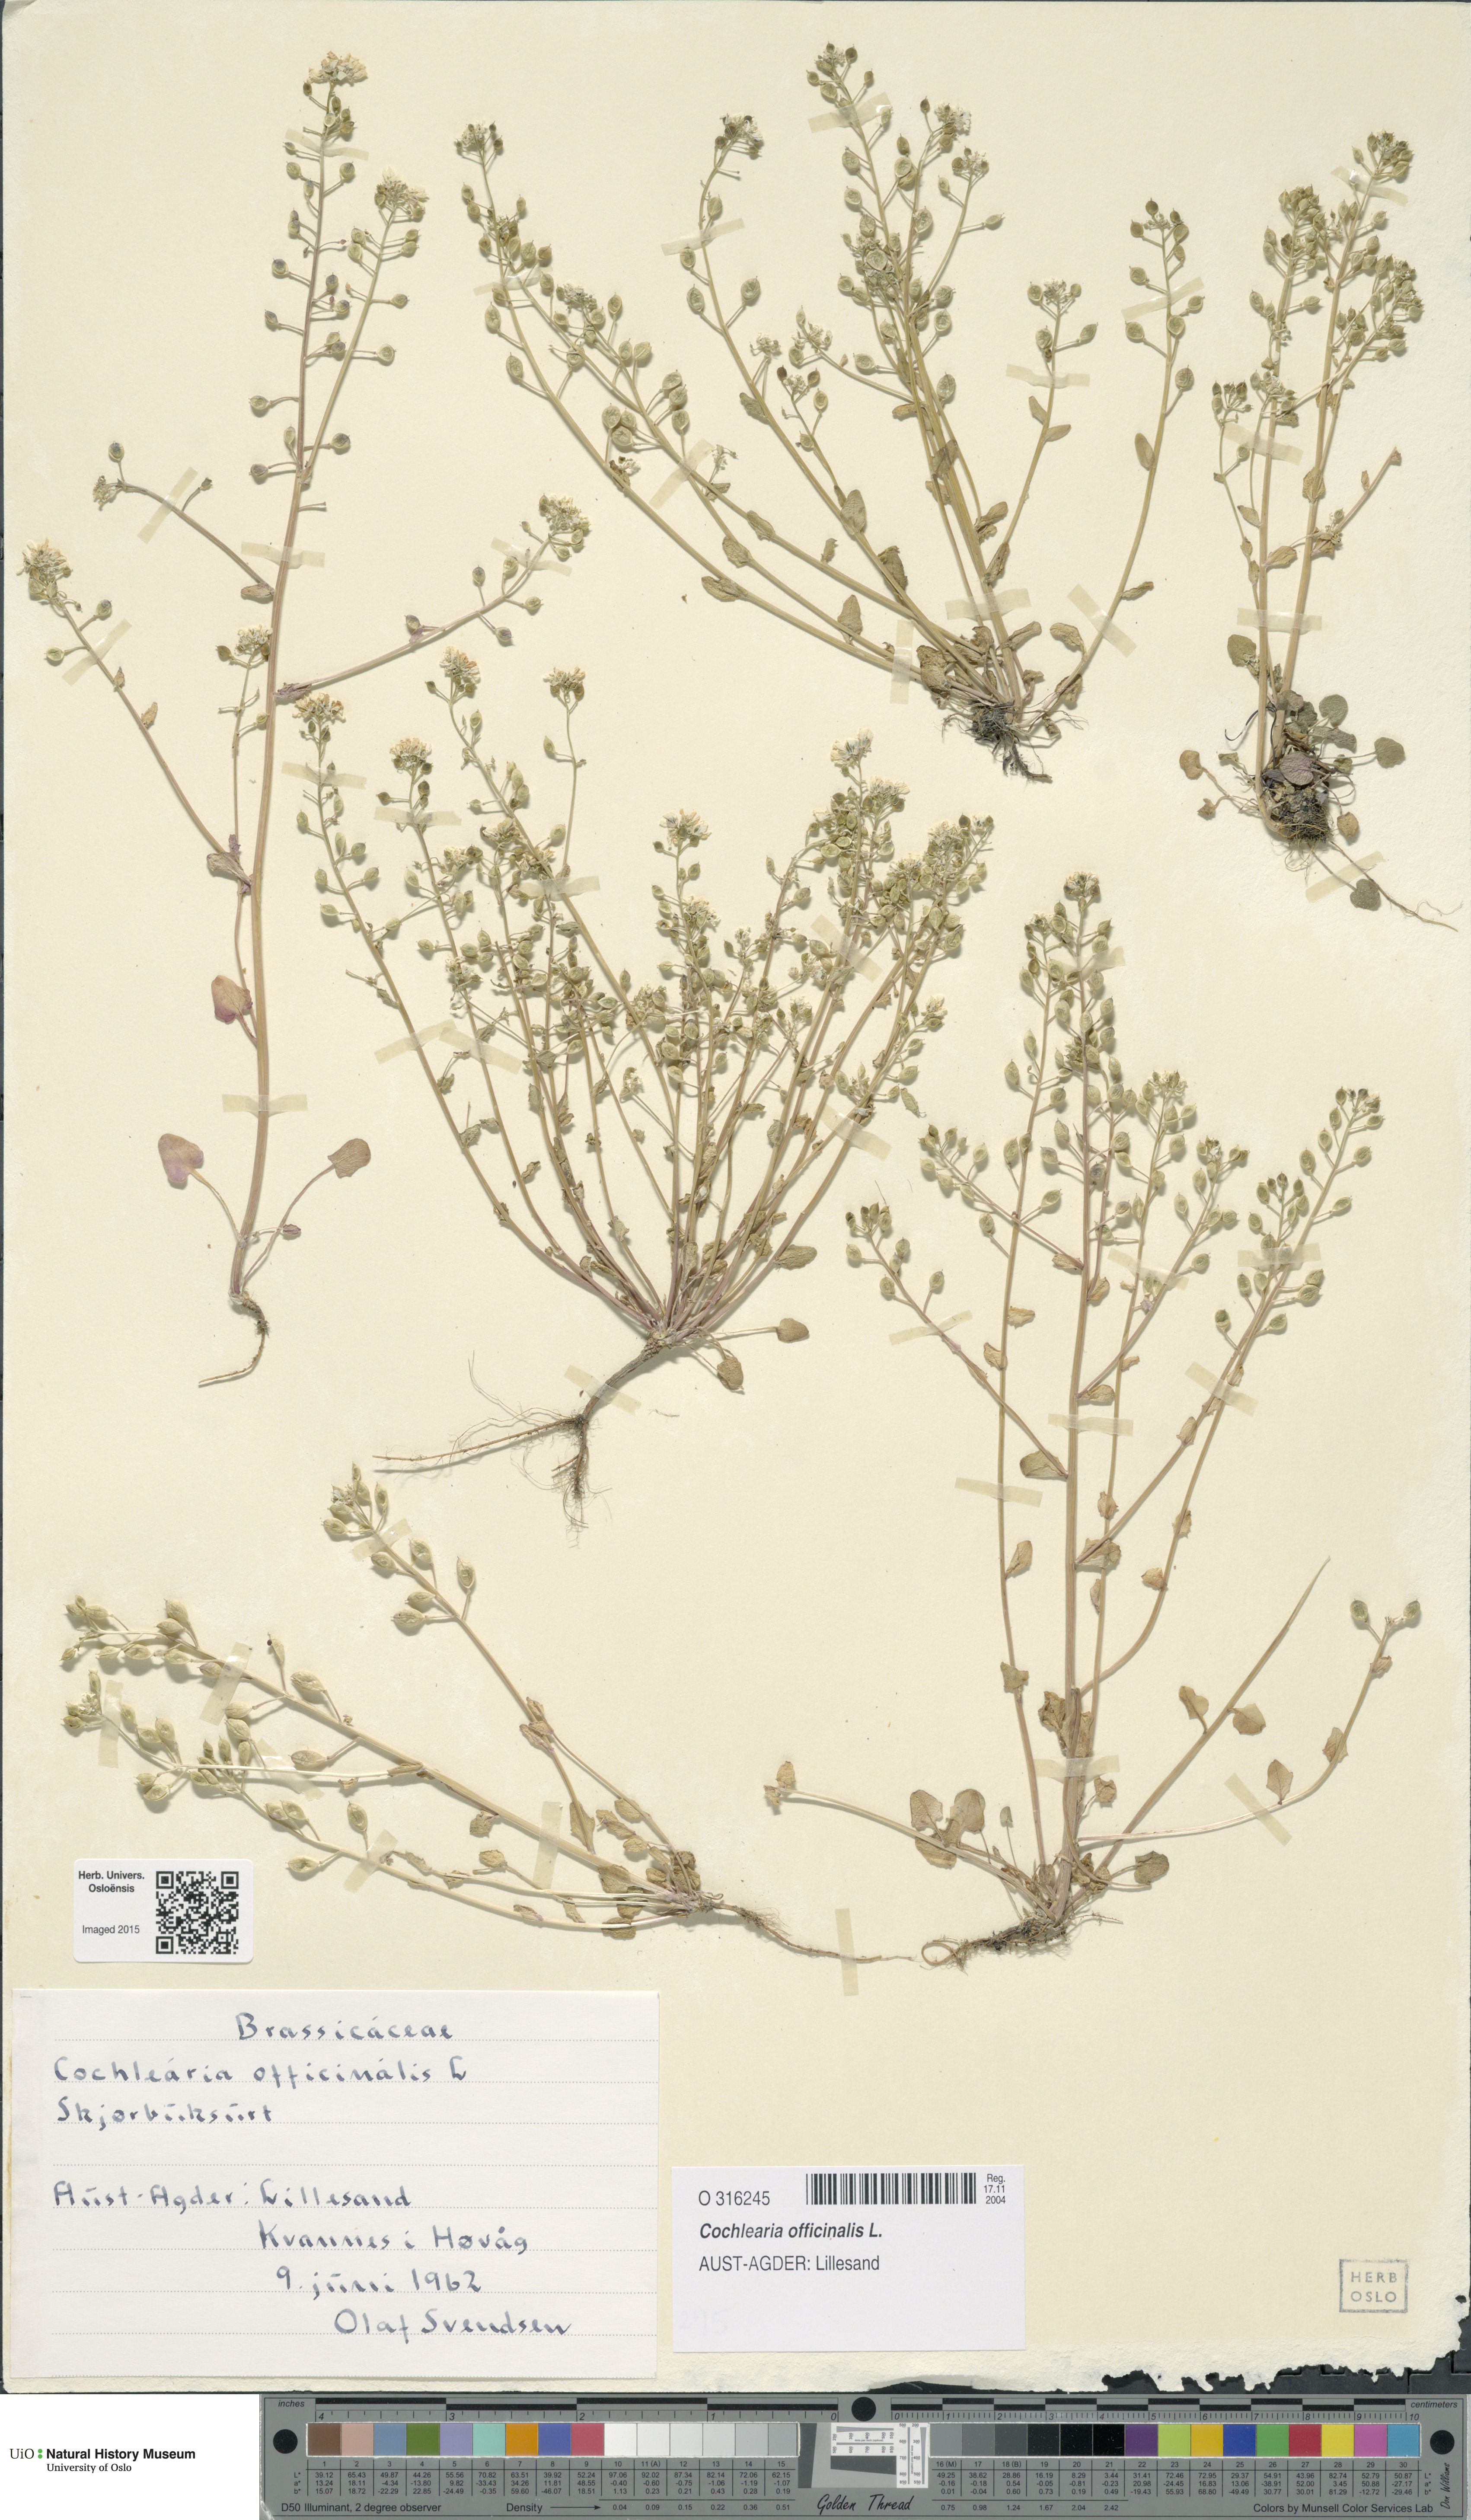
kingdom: Plantae
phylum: Tracheophyta
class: Magnoliopsida
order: Brassicales
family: Brassicaceae
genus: Cochlearia
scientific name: Cochlearia officinalis
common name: Scurvy-grass
